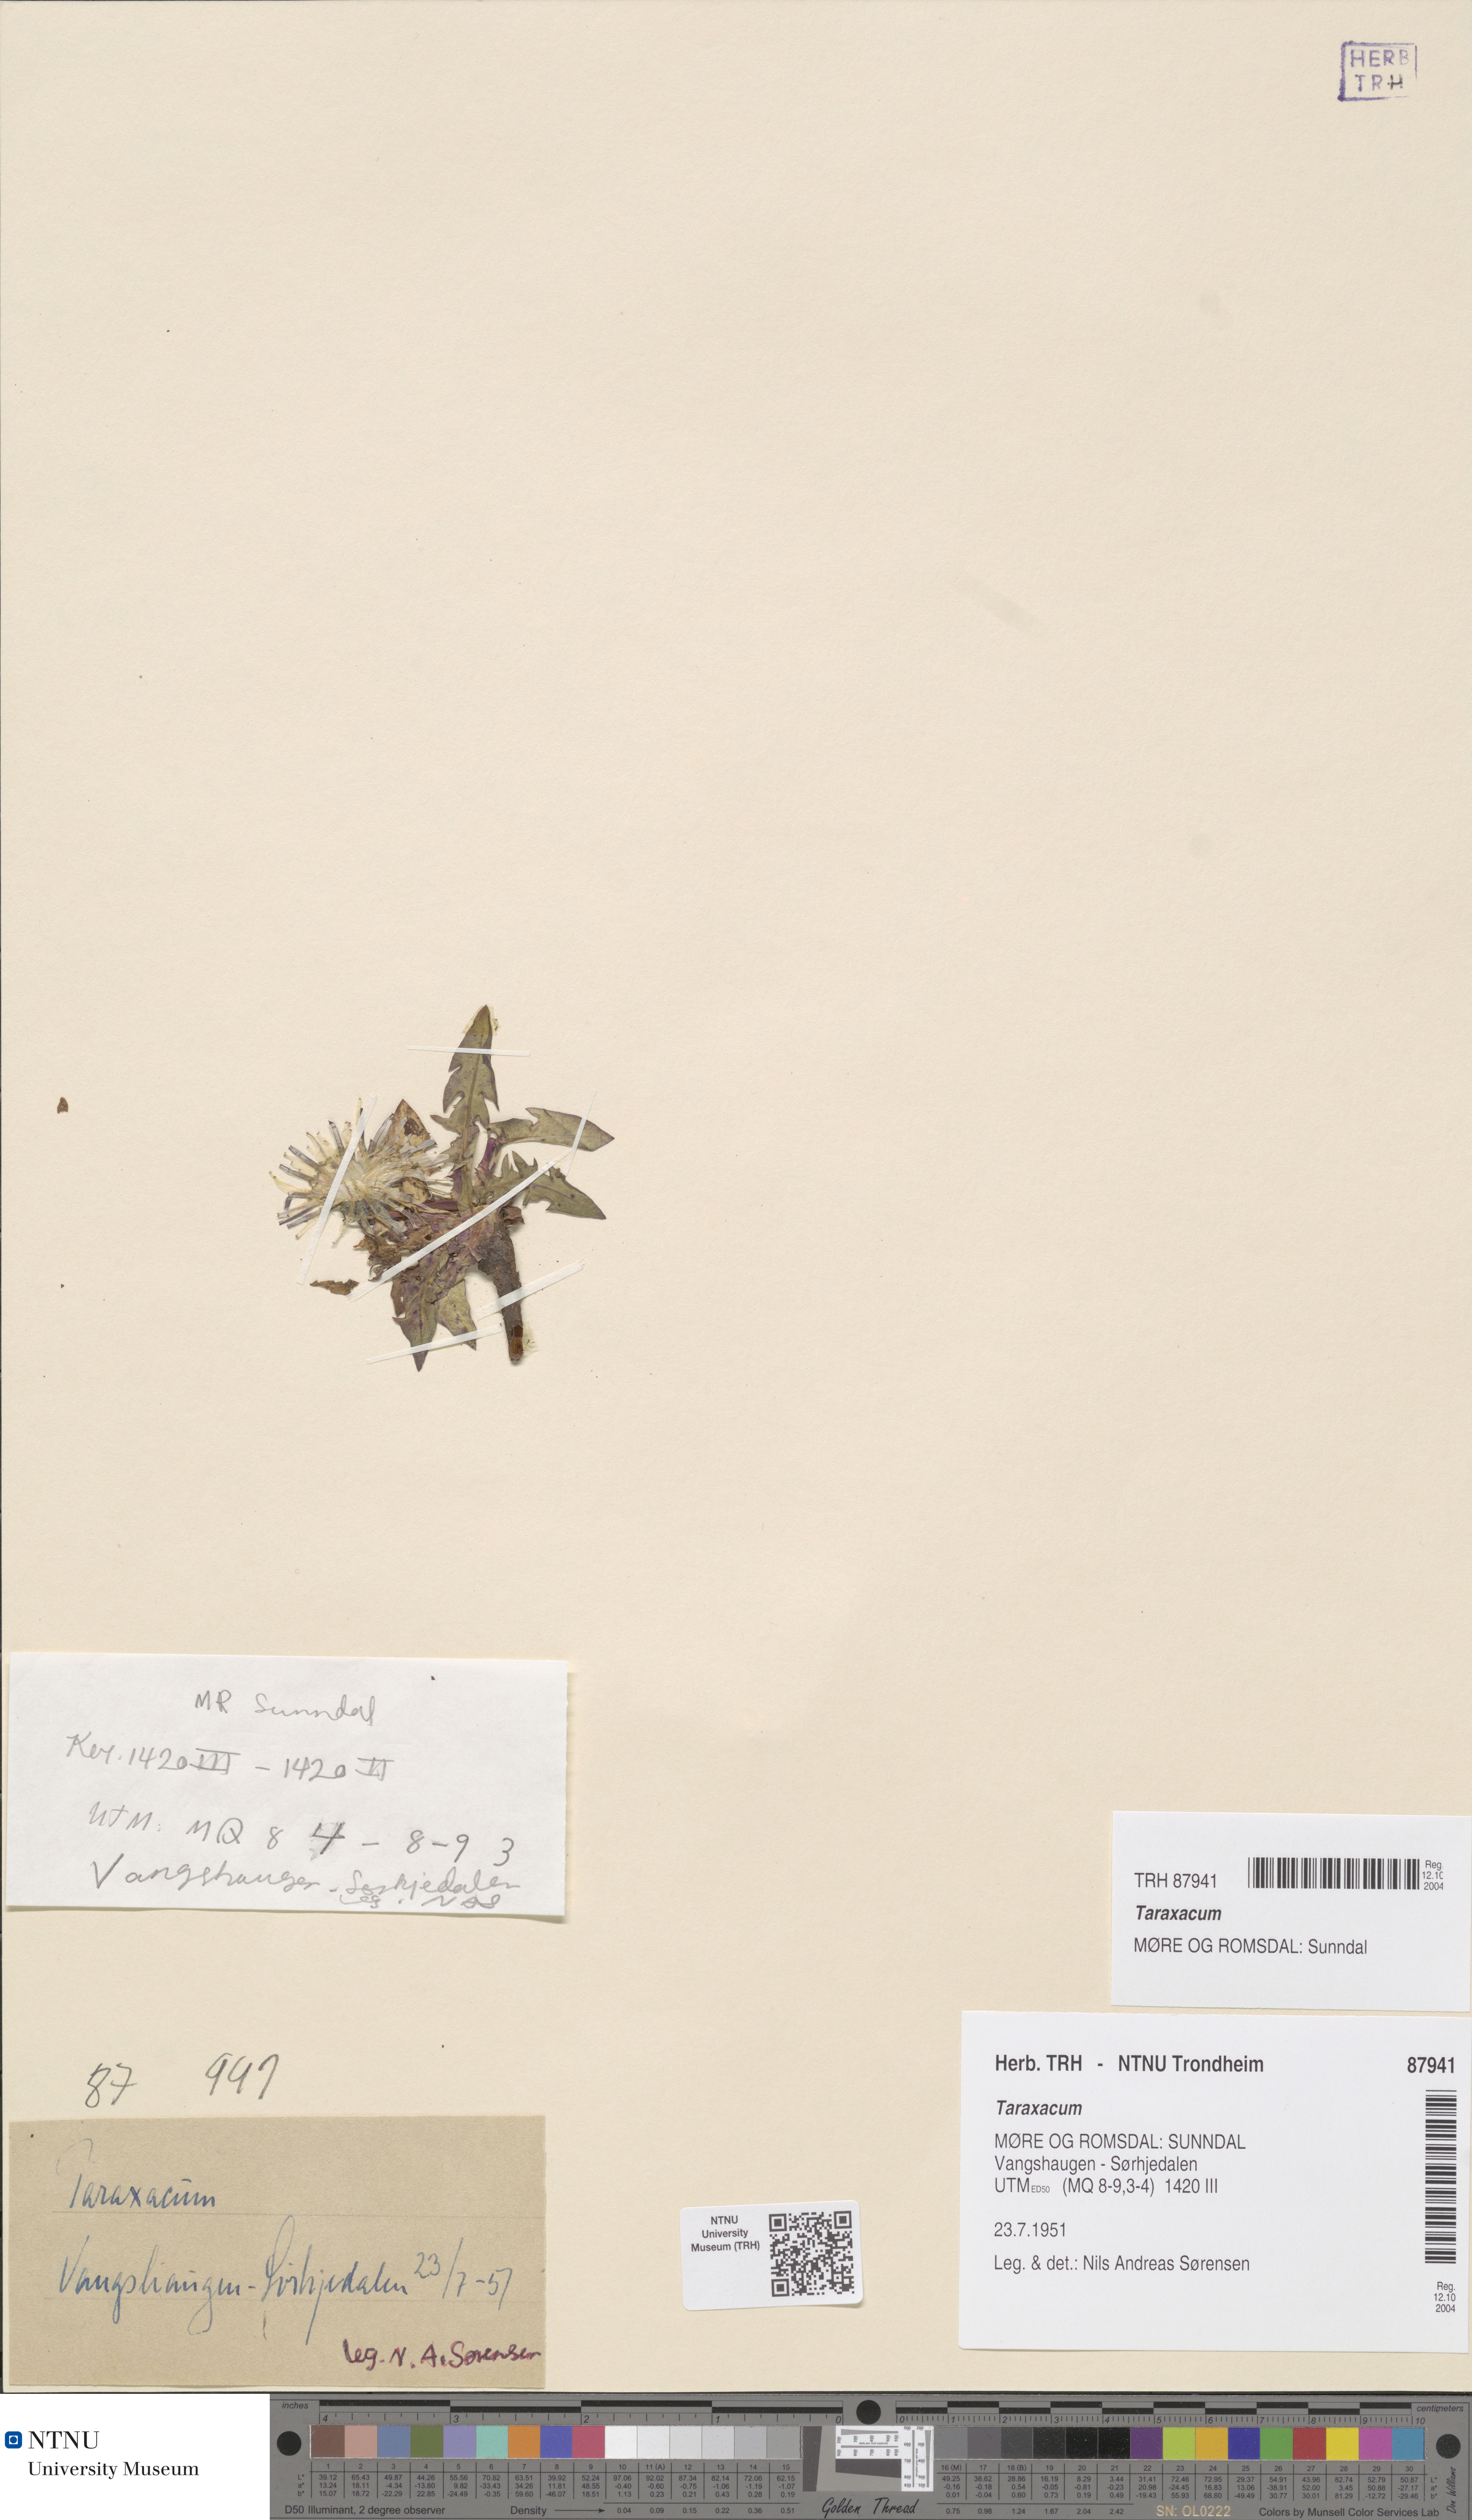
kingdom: Plantae
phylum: Tracheophyta
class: Magnoliopsida
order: Asterales
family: Asteraceae
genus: Taraxacum
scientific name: Taraxacum
